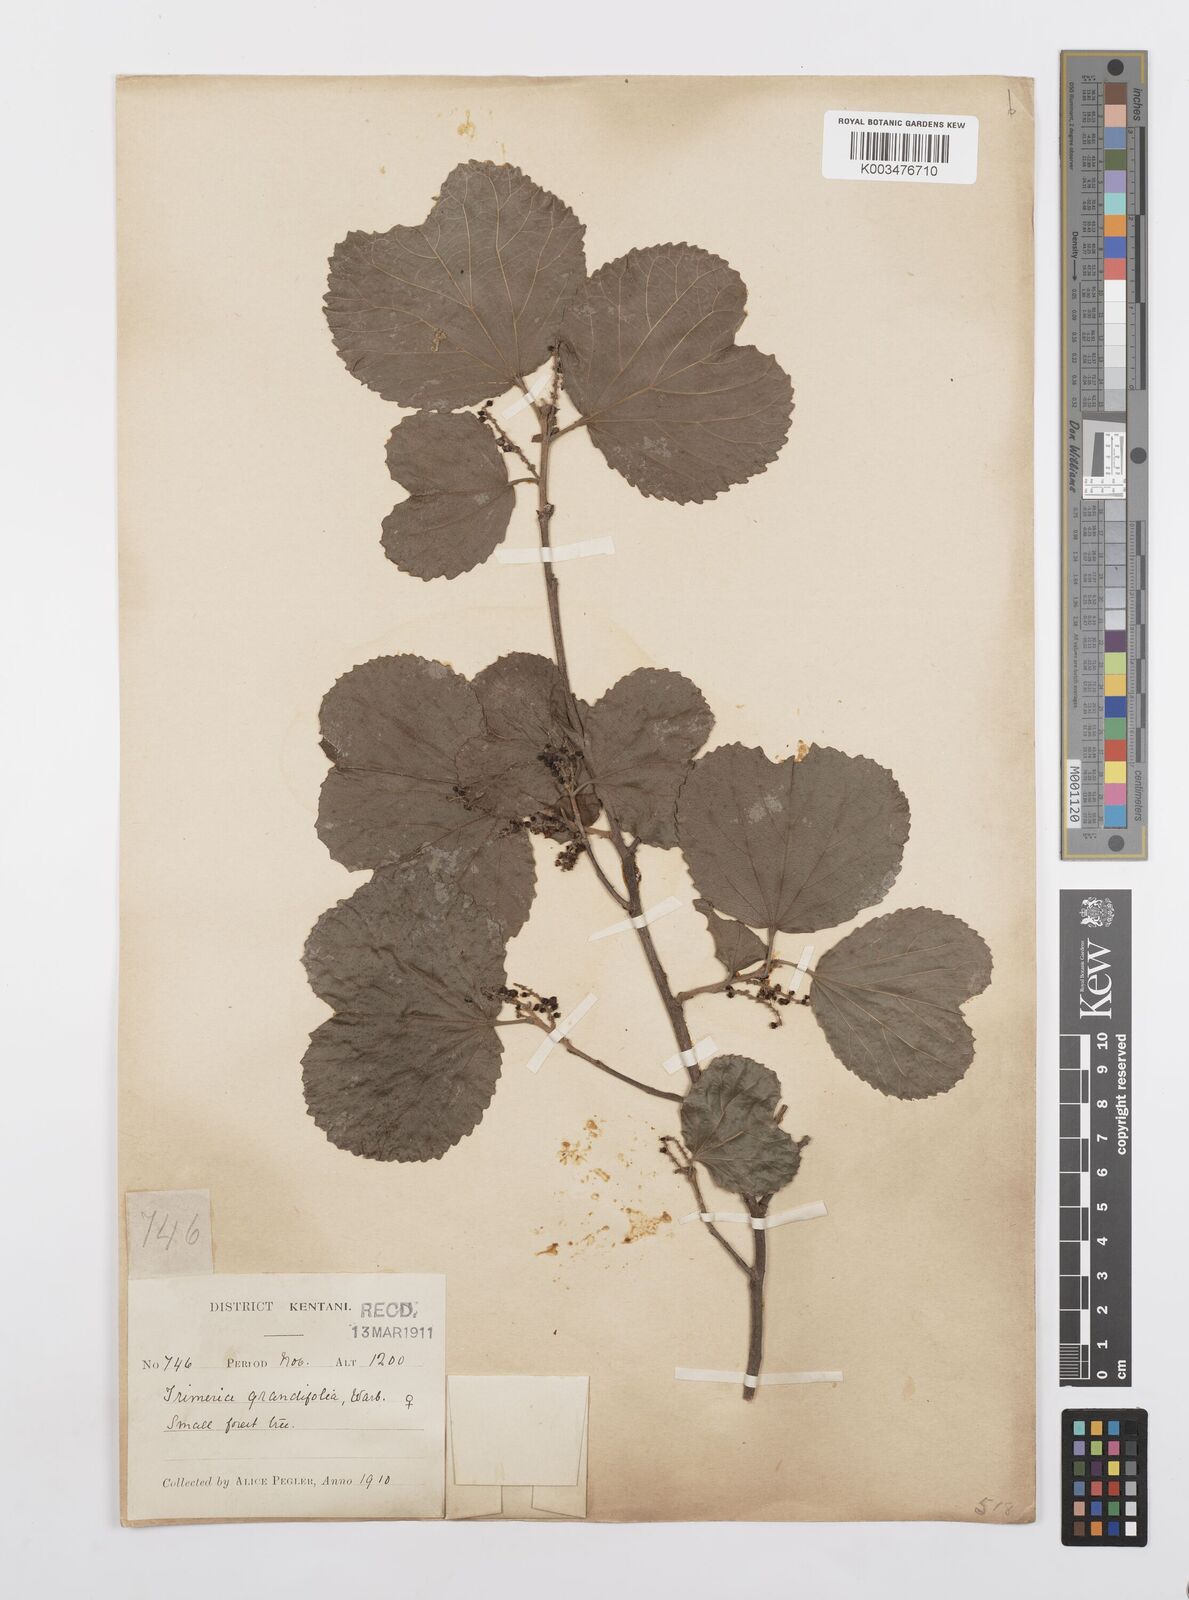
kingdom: Plantae
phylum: Tracheophyta
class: Magnoliopsida
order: Malpighiales
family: Salicaceae
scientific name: Salicaceae
